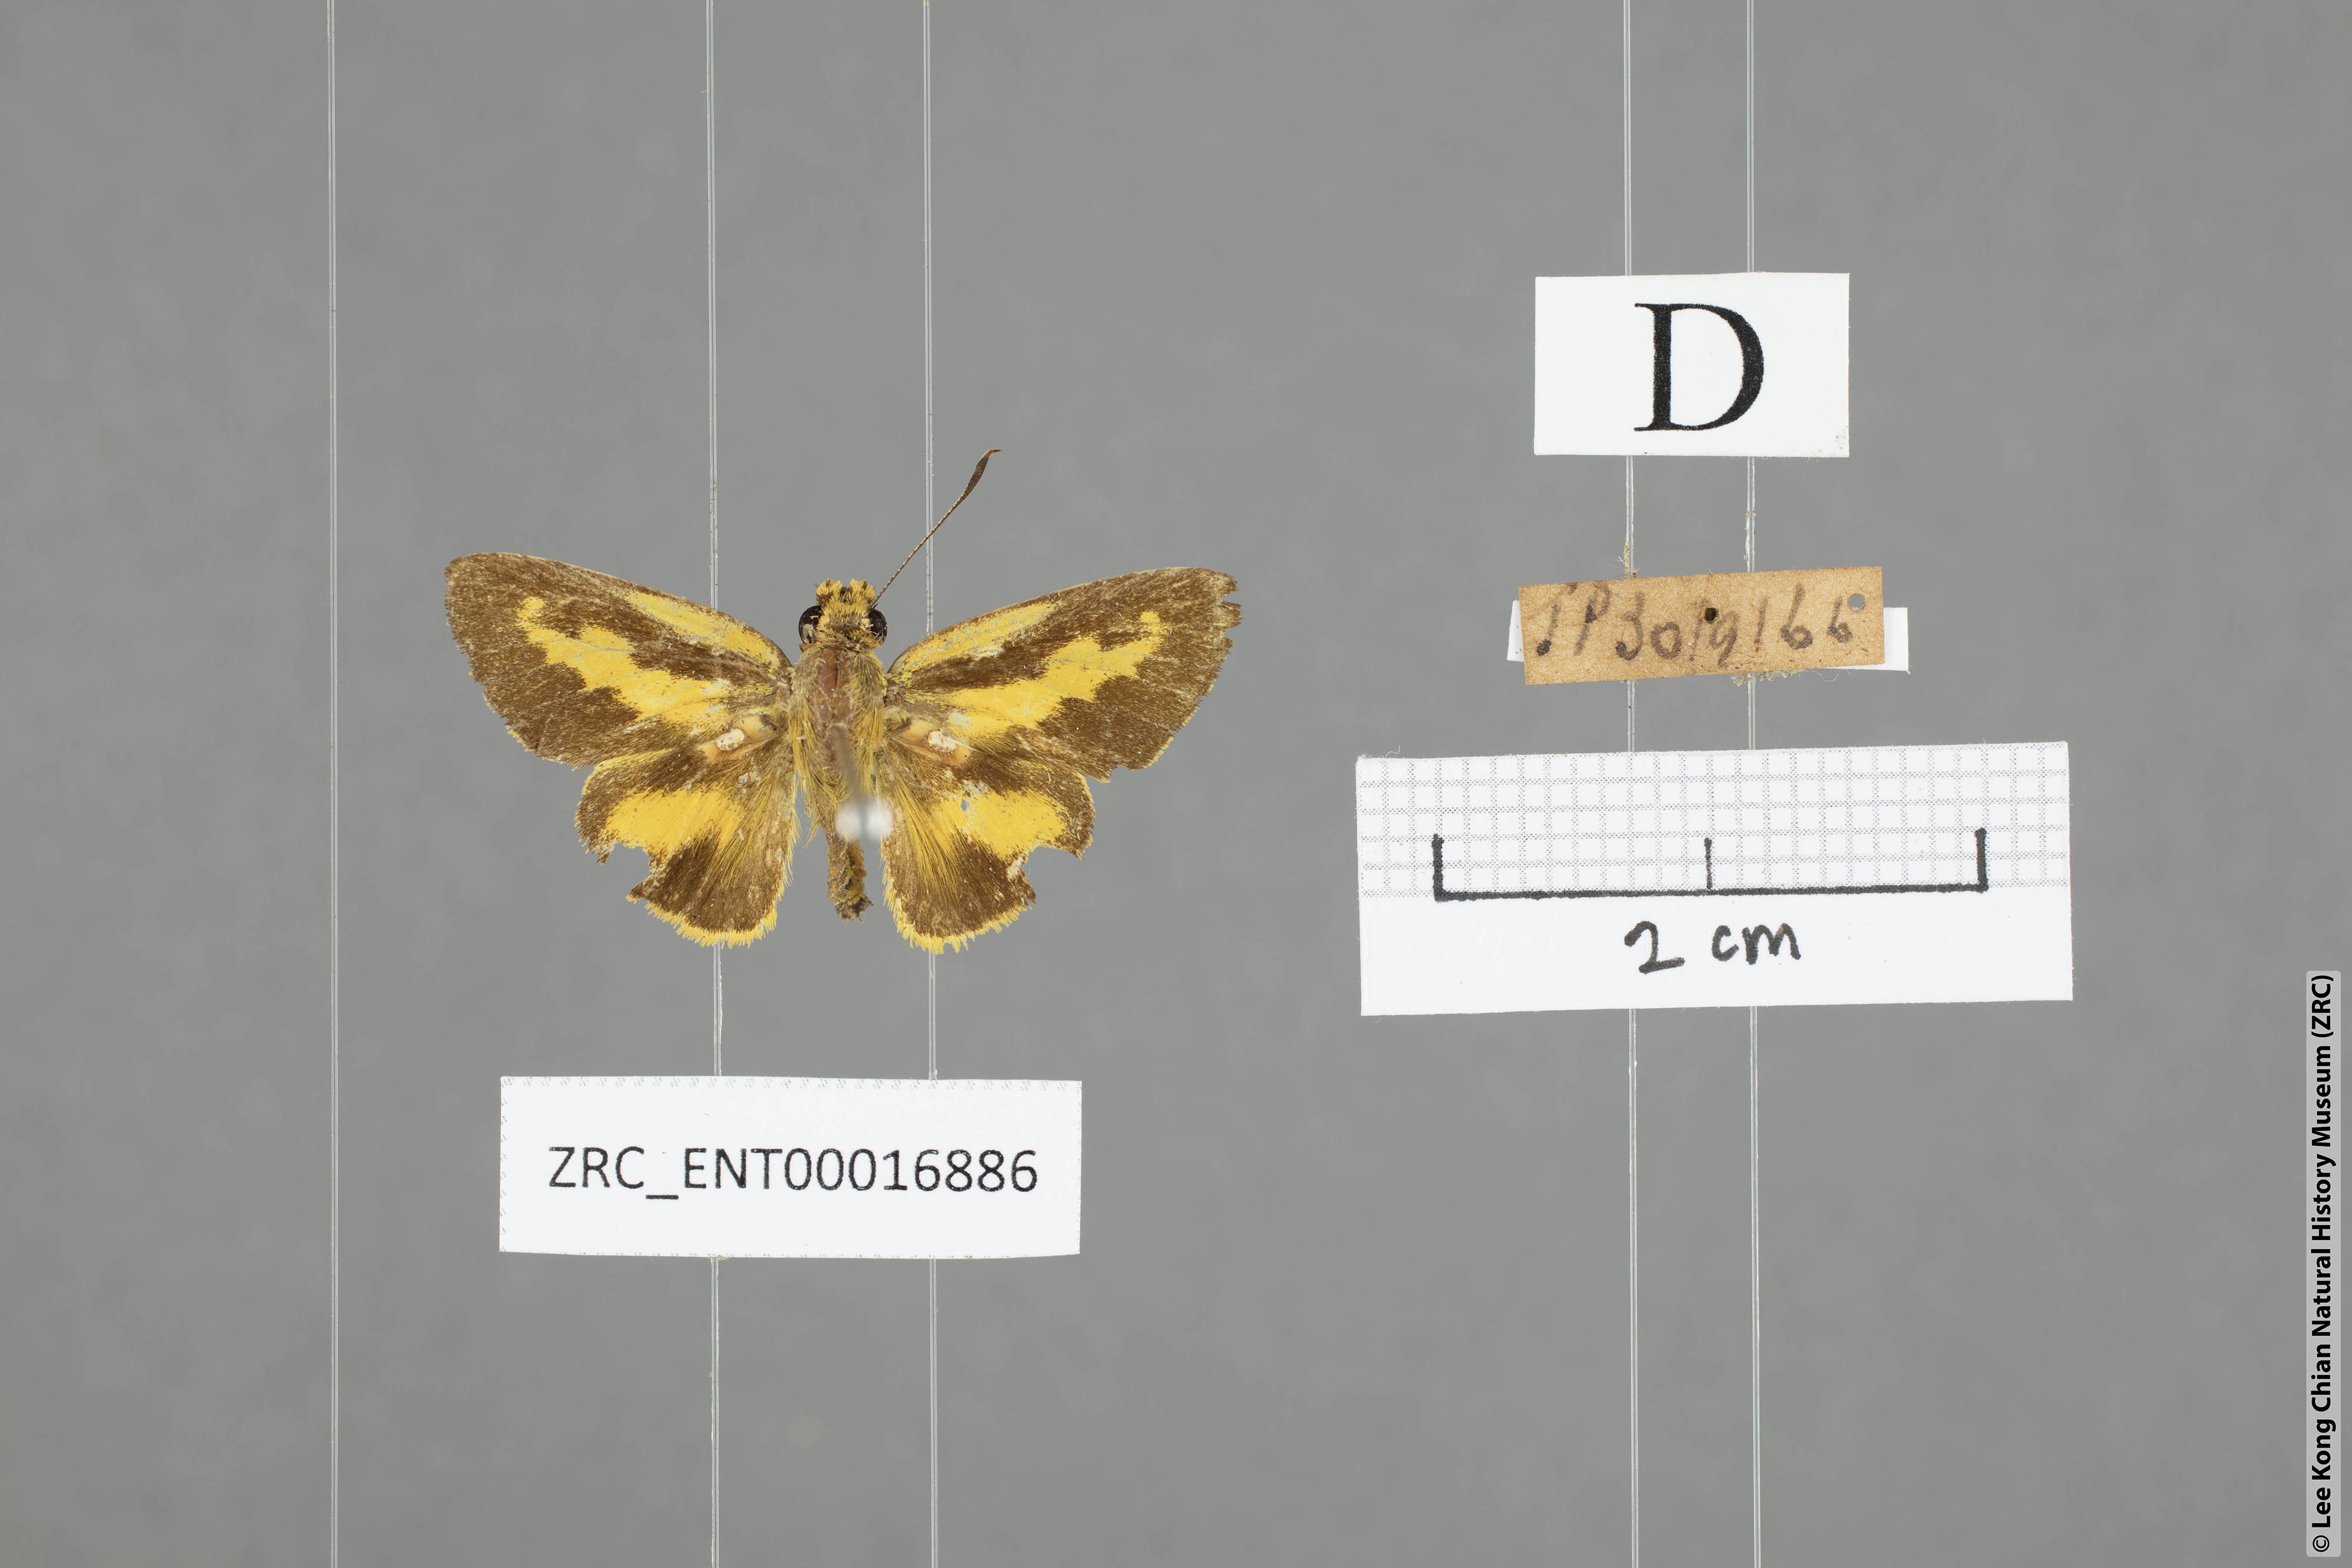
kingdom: Animalia
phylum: Arthropoda
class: Insecta
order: Lepidoptera
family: Hesperiidae
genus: Cupitha
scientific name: Cupitha purreea
